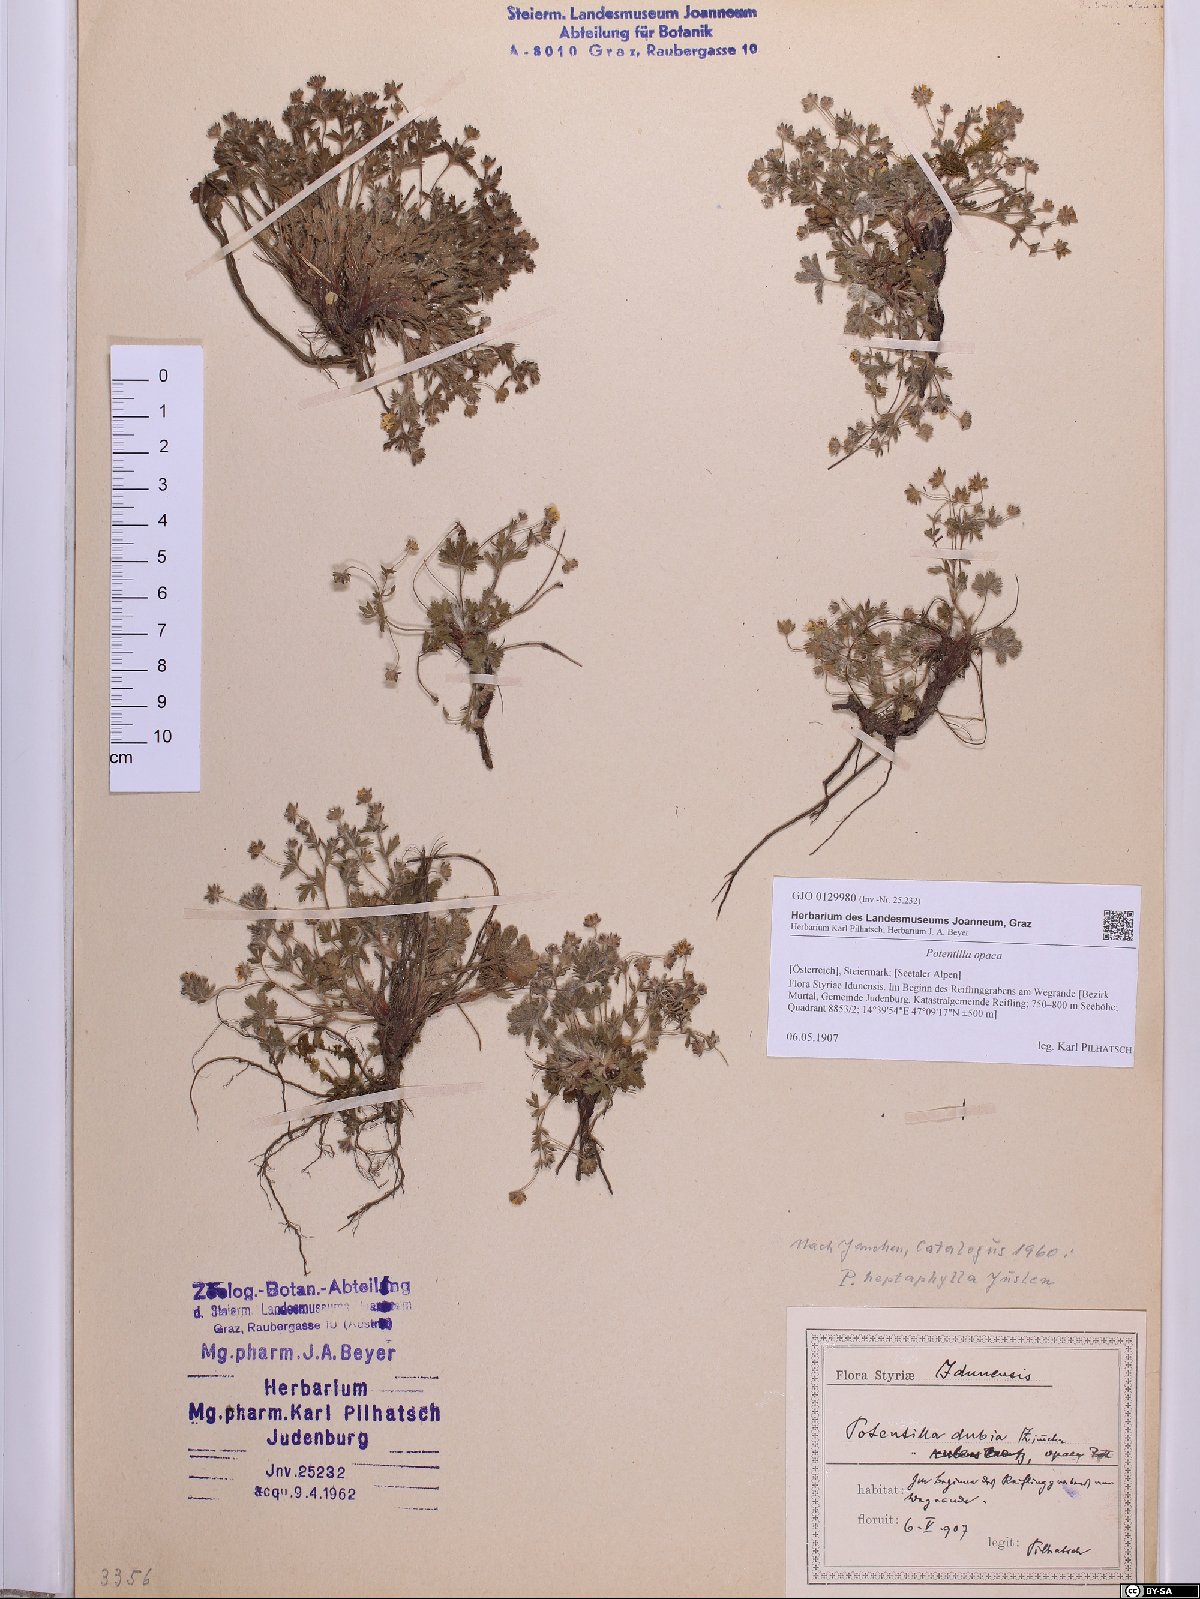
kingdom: Plantae
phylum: Tracheophyta
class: Magnoliopsida
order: Rosales
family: Rosaceae
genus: Potentilla
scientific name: Potentilla
